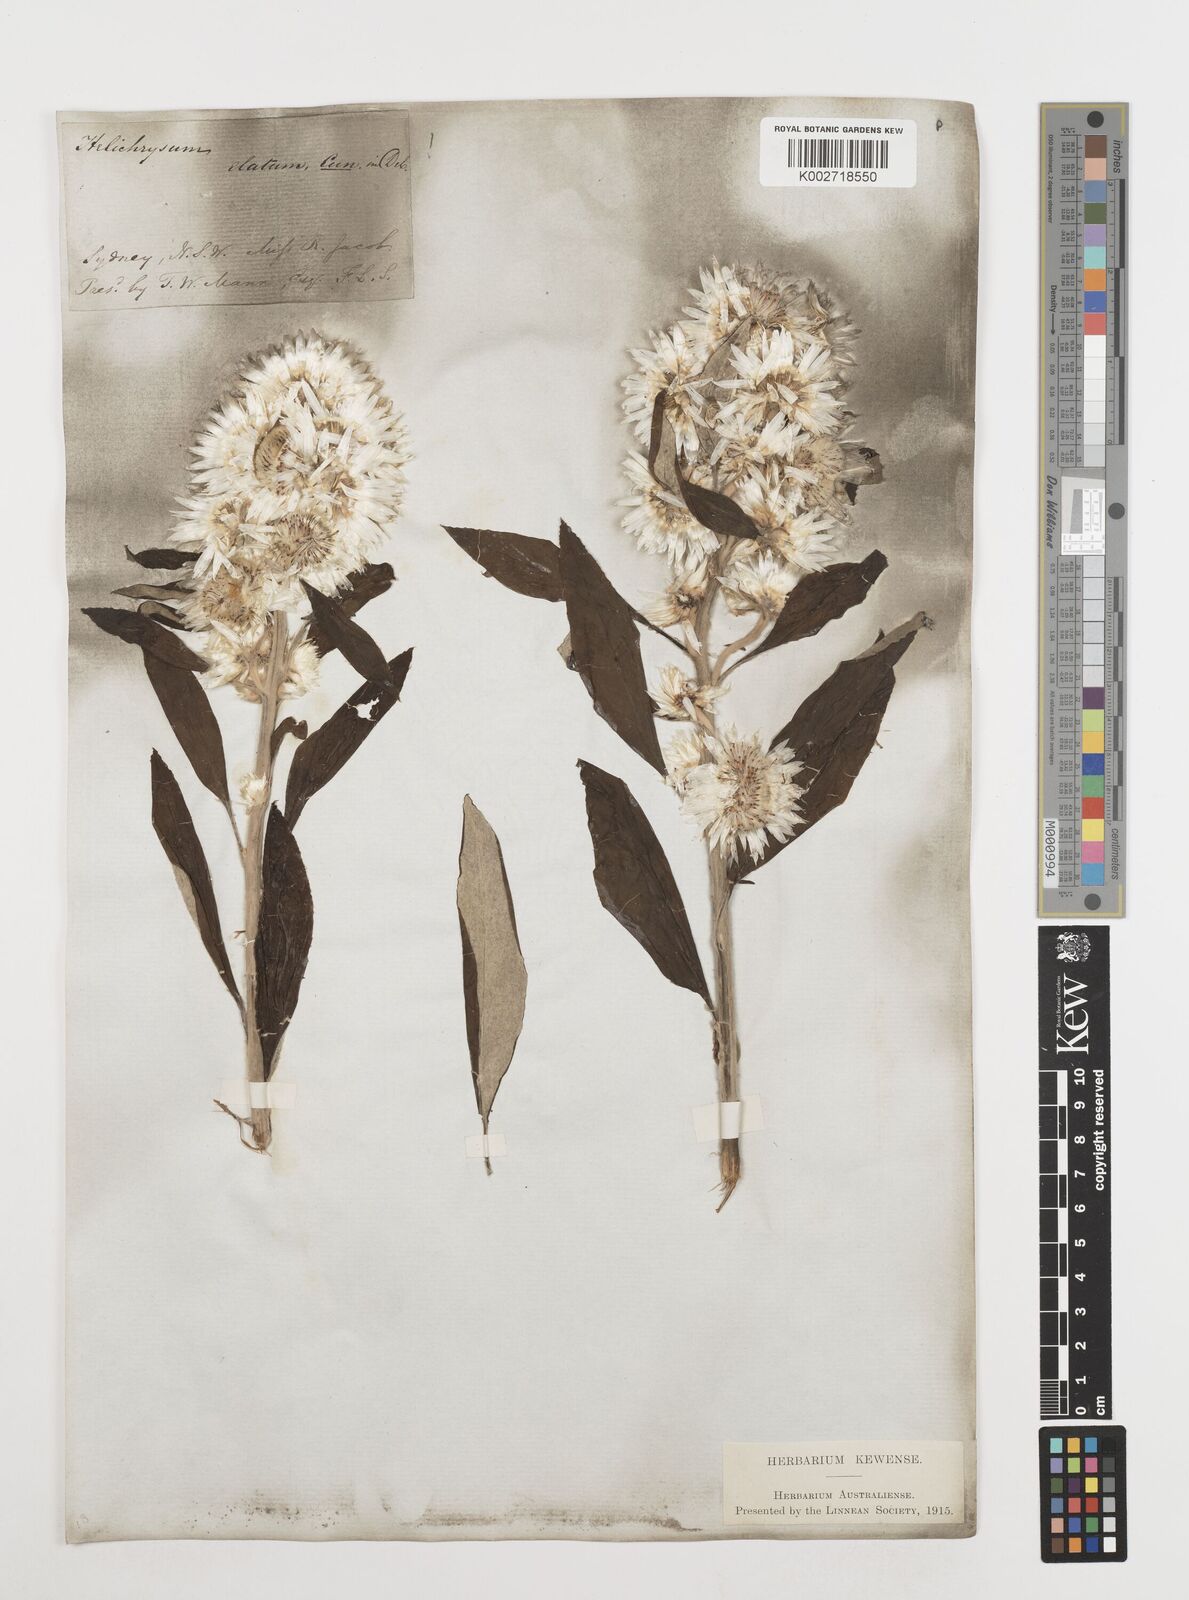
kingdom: Plantae
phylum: Tracheophyta
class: Magnoliopsida
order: Asterales
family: Asteraceae
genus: Leucozoma
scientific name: Leucozoma elatum
